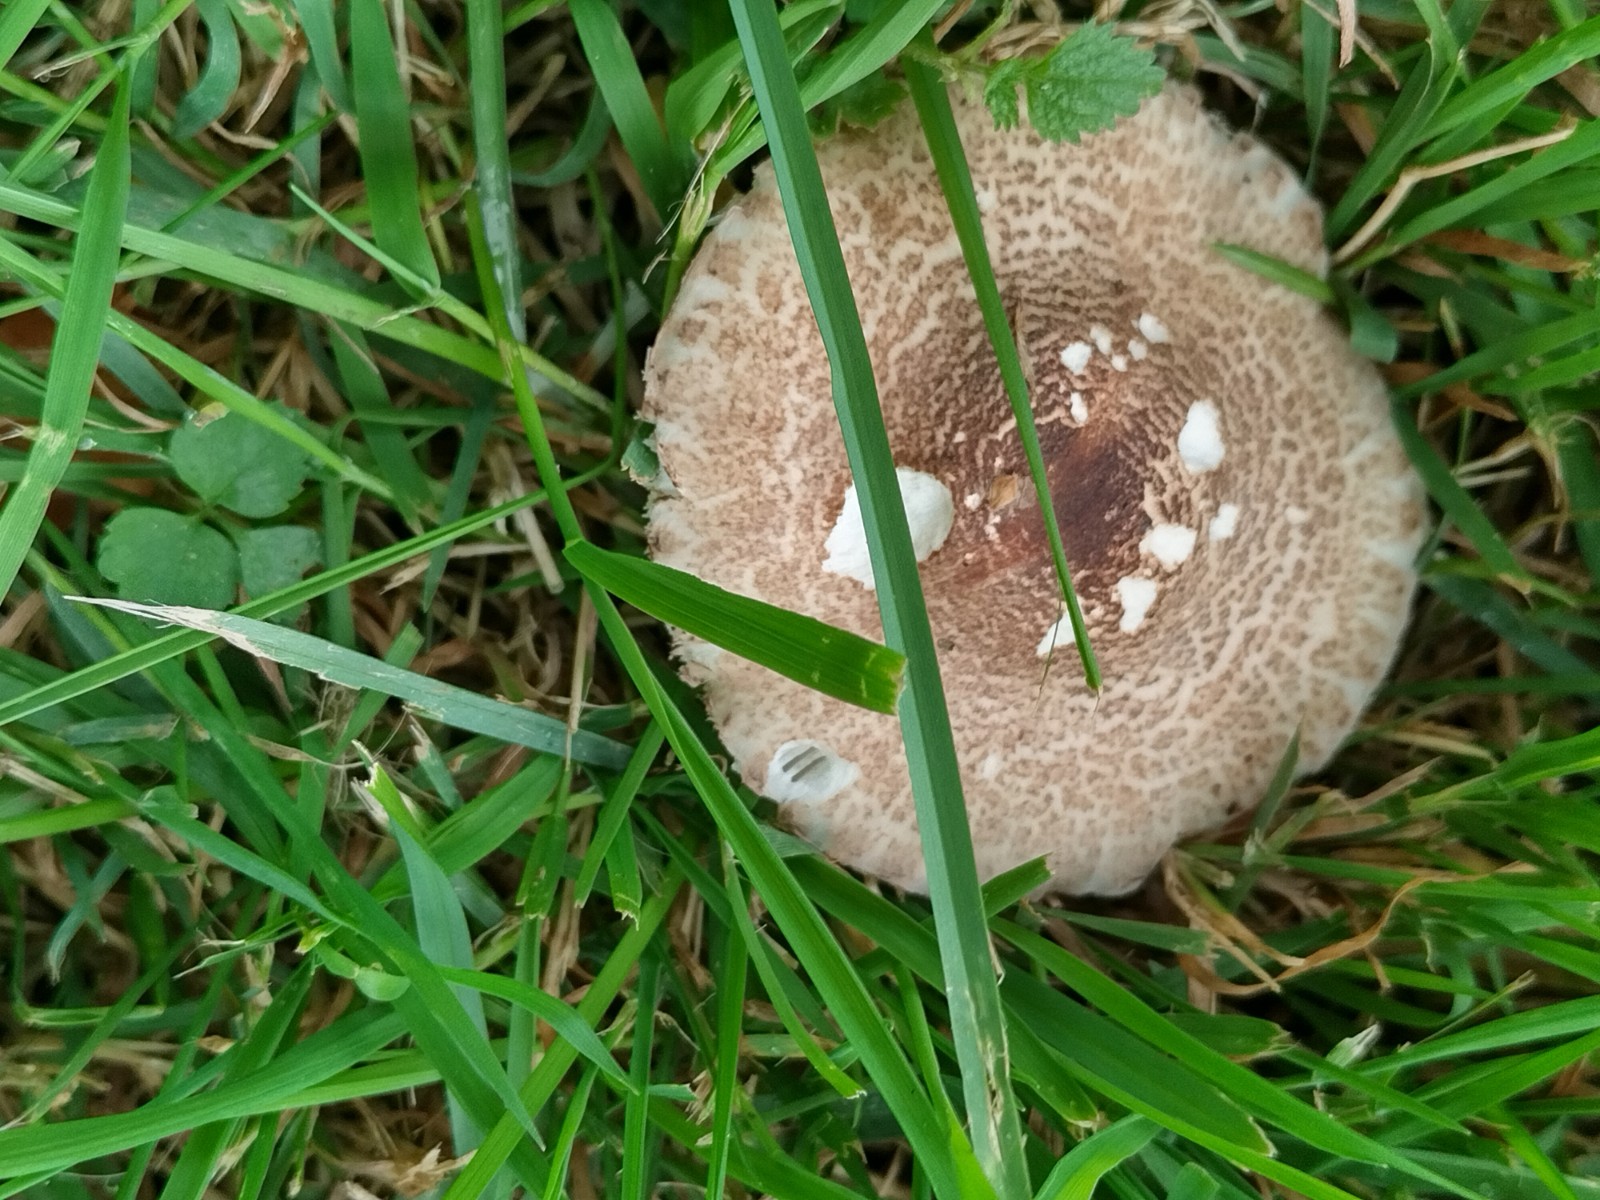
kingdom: Fungi
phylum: Basidiomycota
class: Agaricomycetes
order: Agaricales
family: Agaricaceae
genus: Lepiota
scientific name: Lepiota brunneoincarnata
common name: brunrød parasolhat
